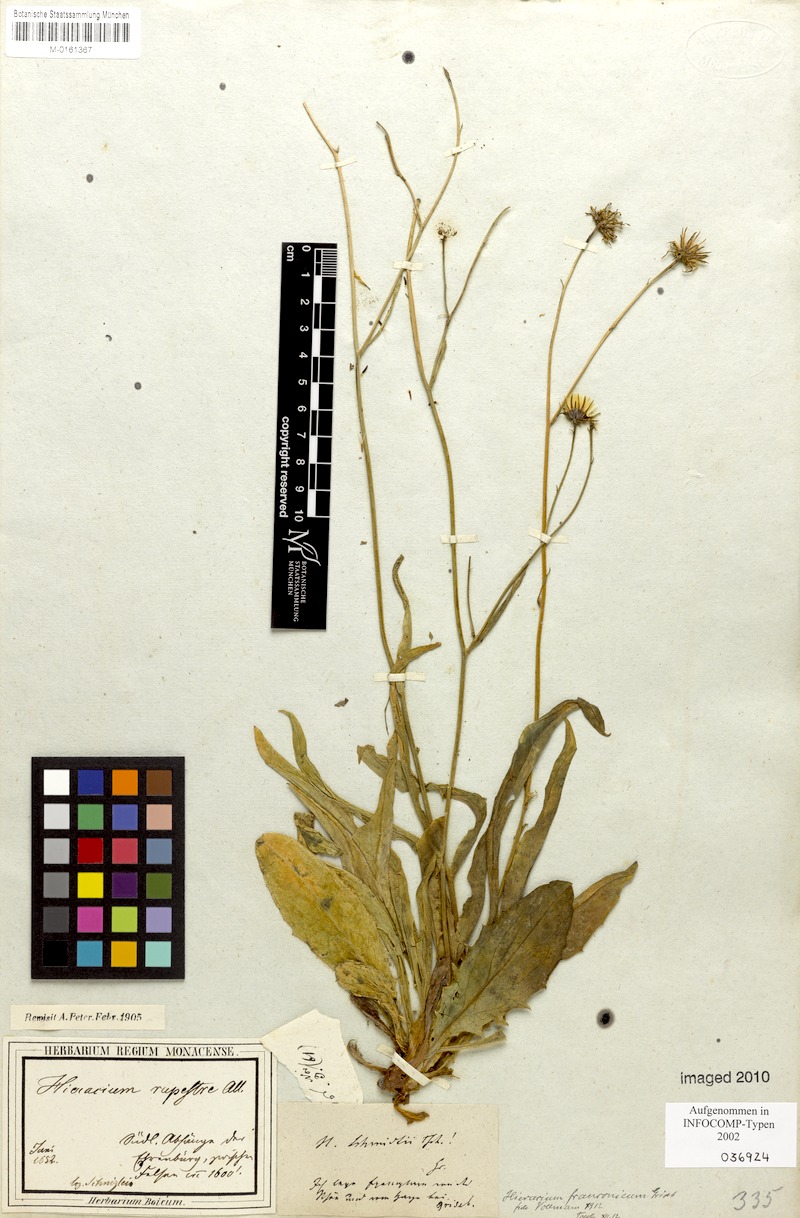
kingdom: Plantae
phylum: Tracheophyta
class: Magnoliopsida
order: Asterales
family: Asteraceae
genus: Hieracium
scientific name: Hieracium franconicum
